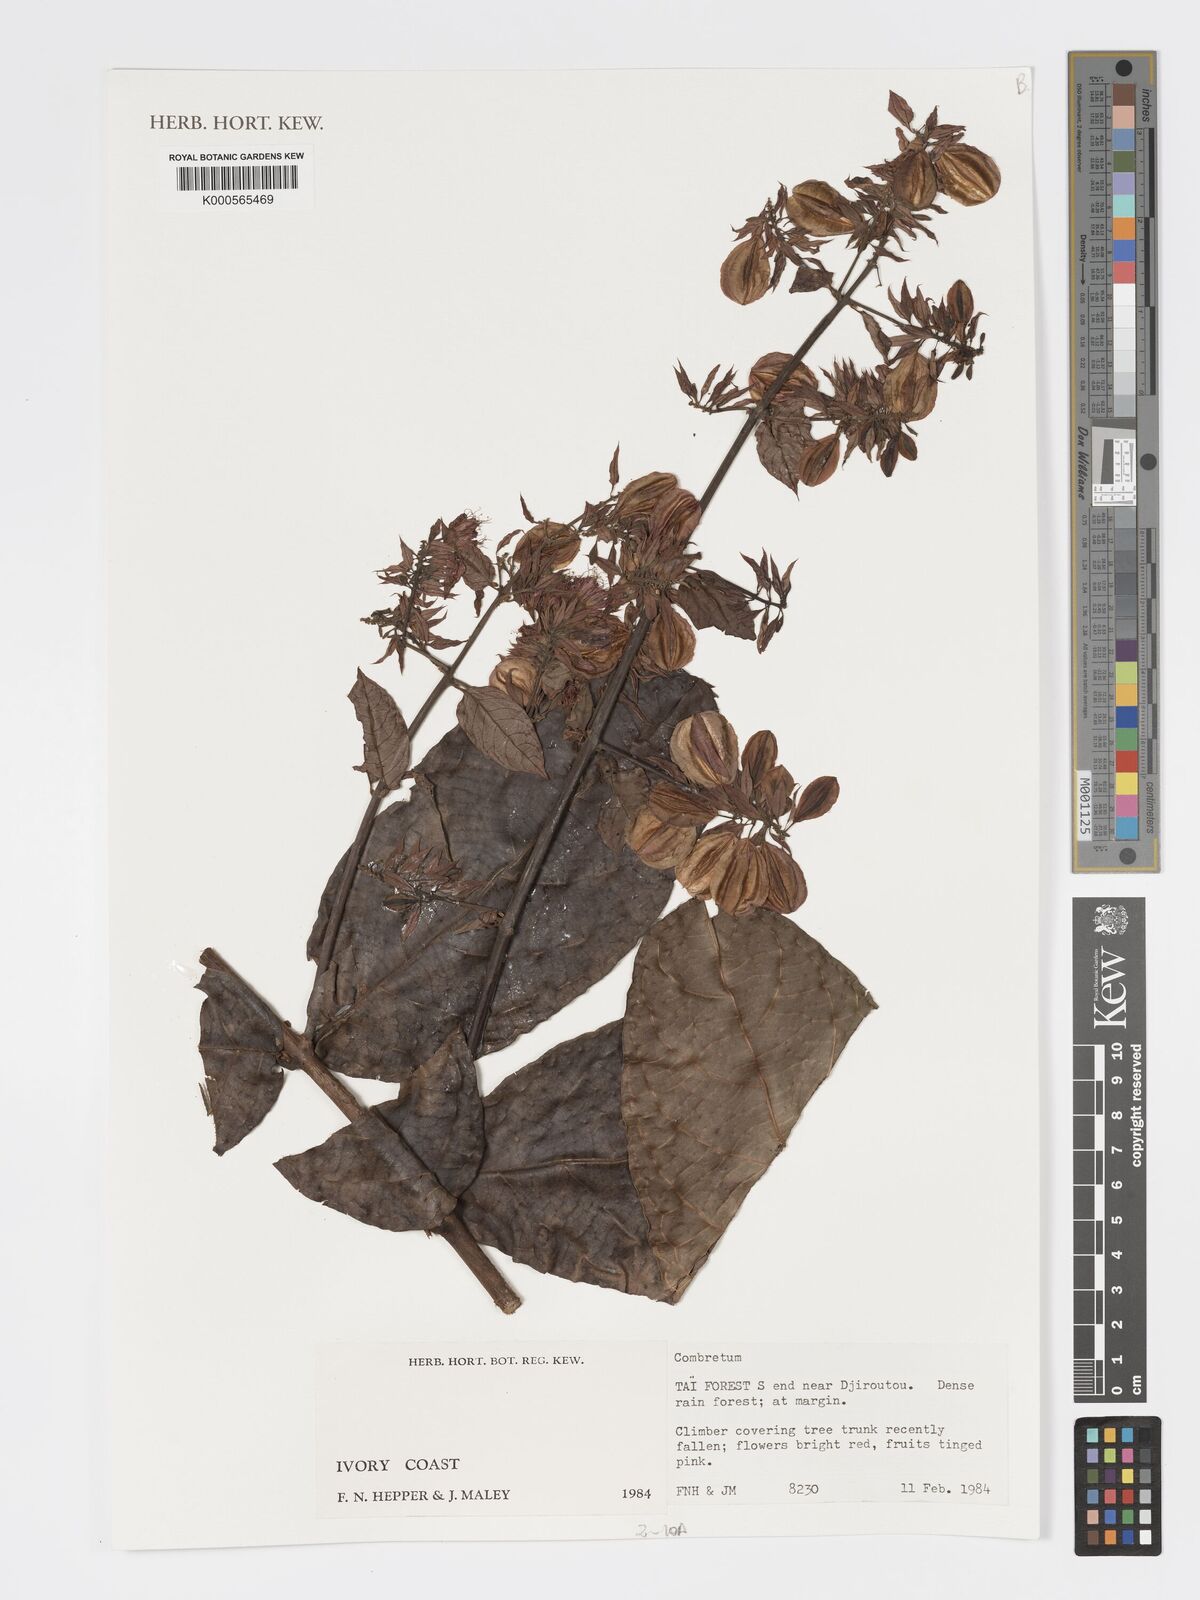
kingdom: Plantae
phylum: Tracheophyta
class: Magnoliopsida
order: Myrtales
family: Combretaceae
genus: Combretum
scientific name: Combretum
